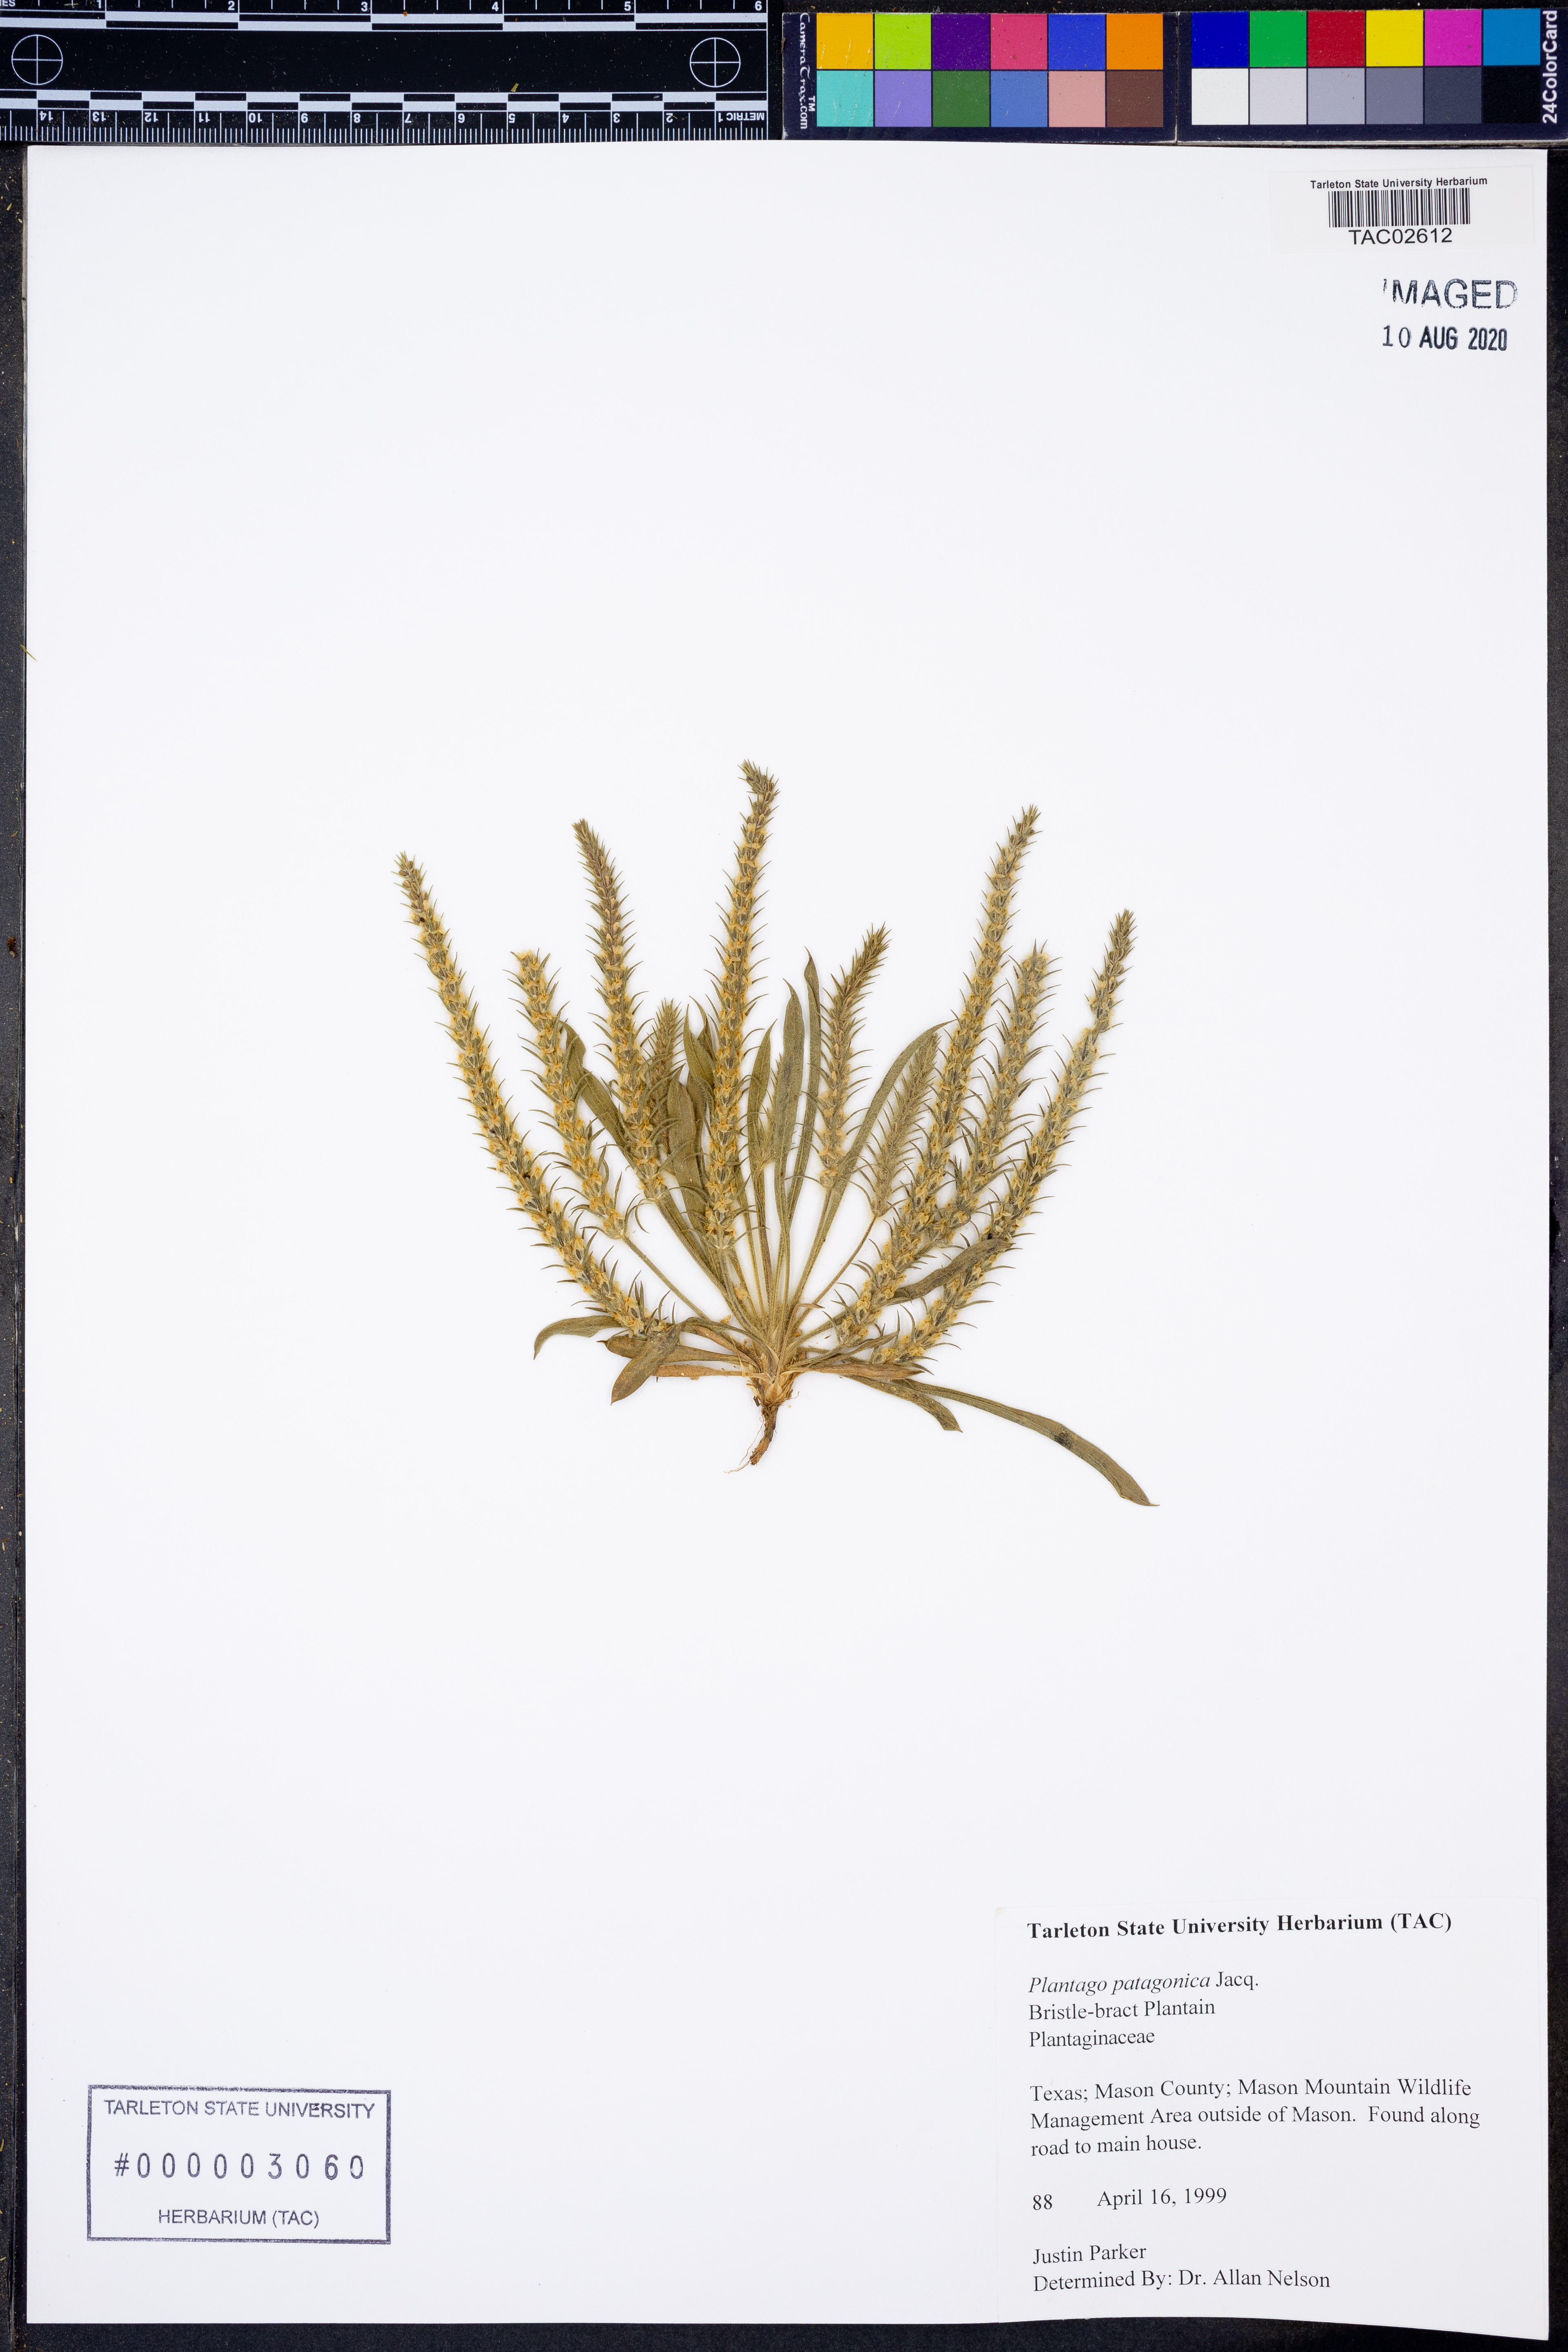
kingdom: Plantae
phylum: Tracheophyta
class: Magnoliopsida
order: Lamiales
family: Plantaginaceae
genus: Plantago
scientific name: Plantago patagonica
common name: Patagonia indian-wheat
